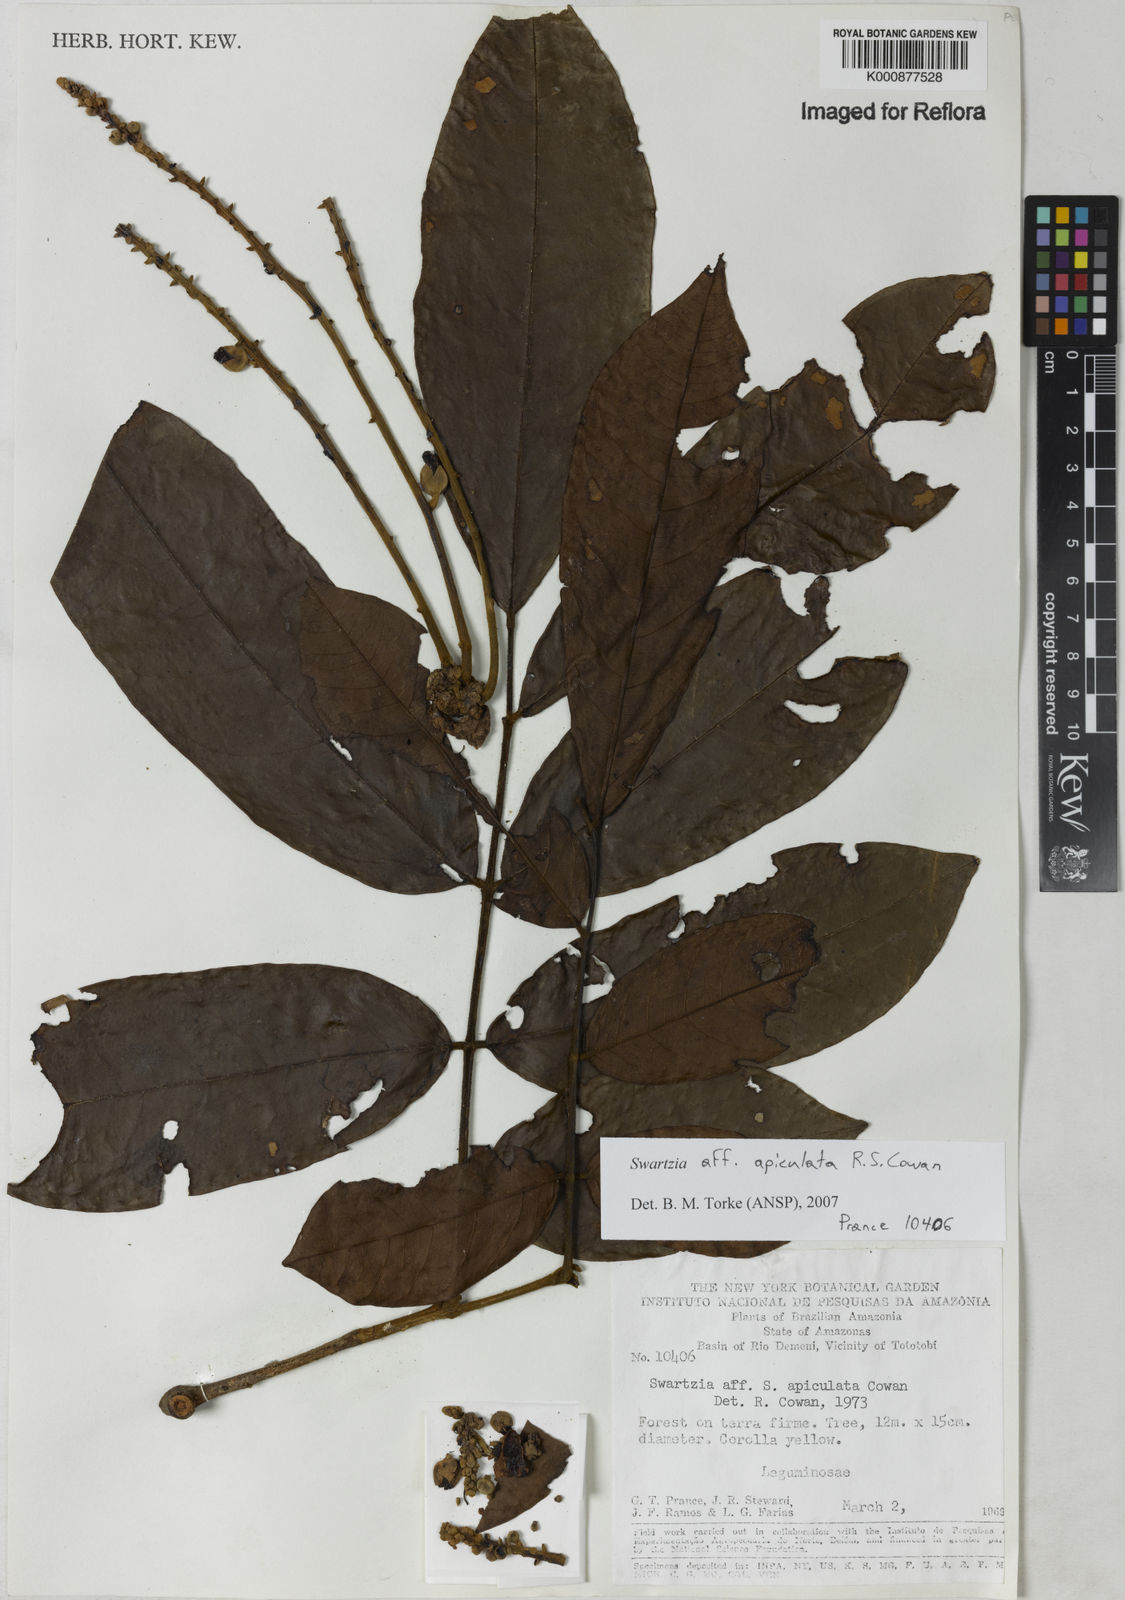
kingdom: Plantae
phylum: Tracheophyta
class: Magnoliopsida
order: Fabales
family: Fabaceae
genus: Swartzia
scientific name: Swartzia apiculata
